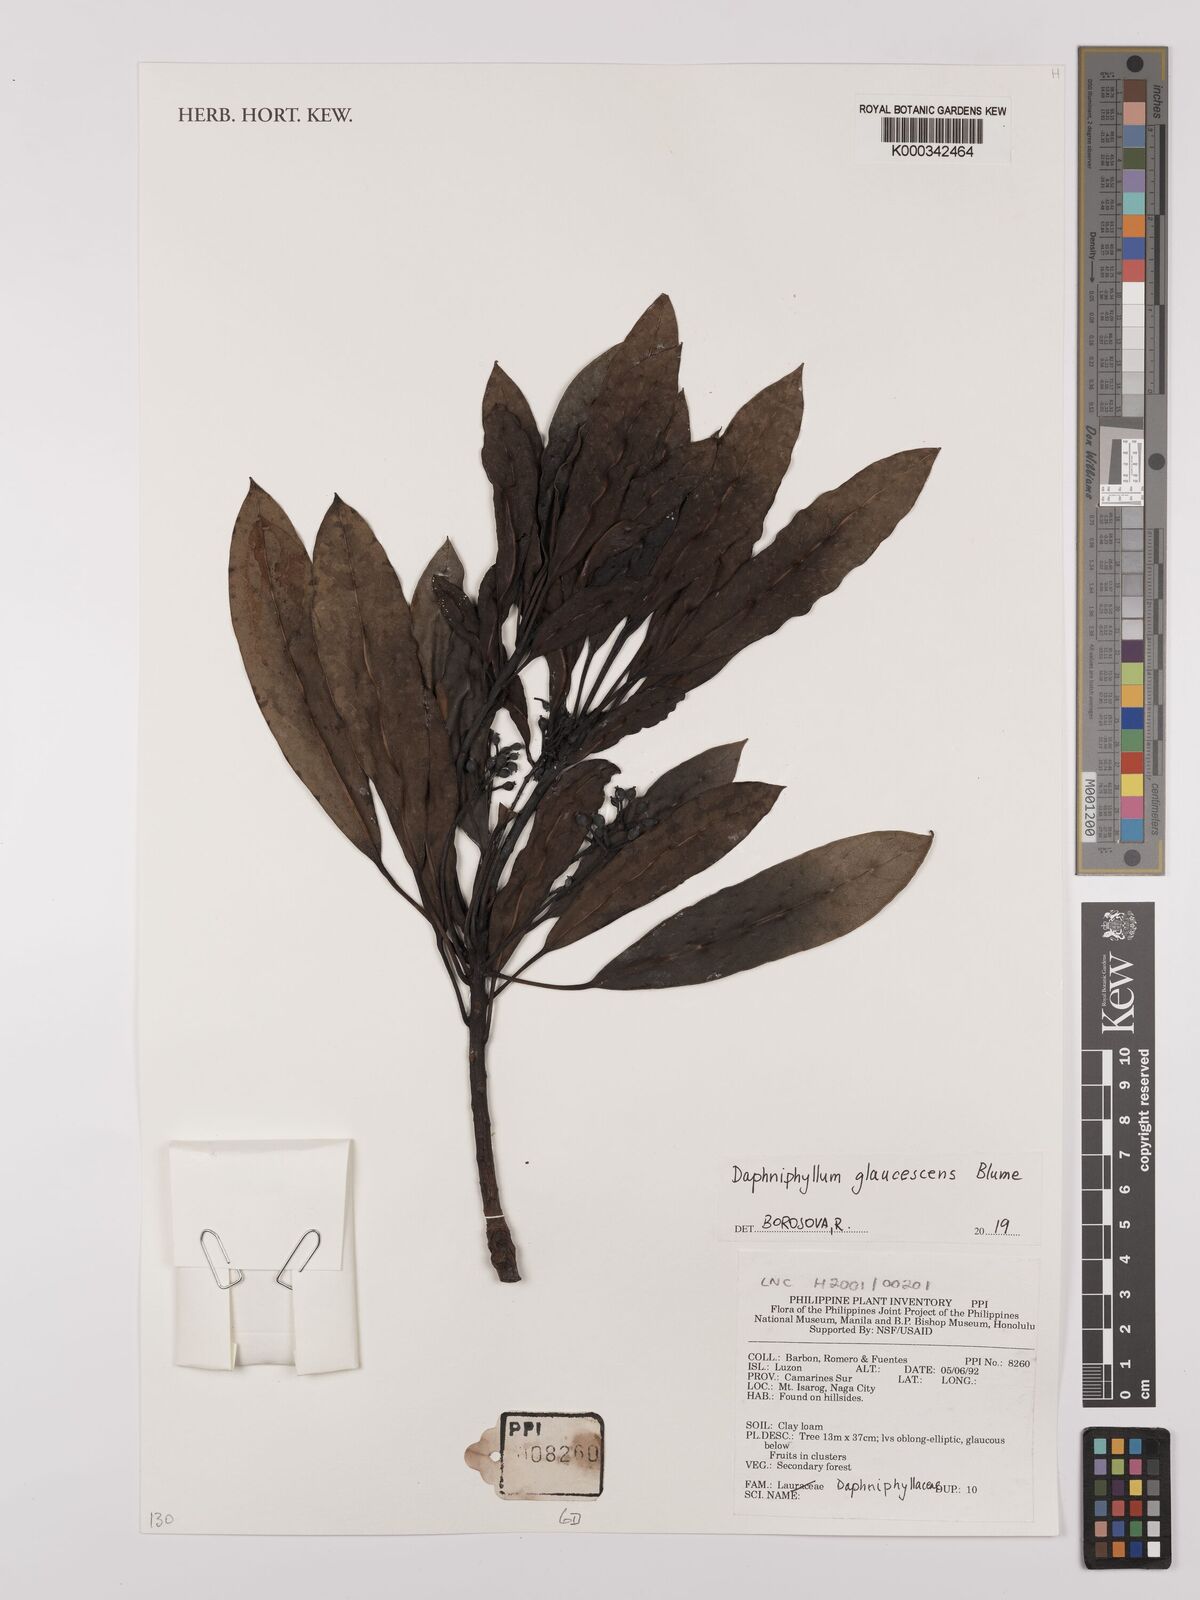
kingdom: Plantae
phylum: Tracheophyta
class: Magnoliopsida
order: Saxifragales
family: Daphniphyllaceae
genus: Daphniphyllum
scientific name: Daphniphyllum glaucescens
